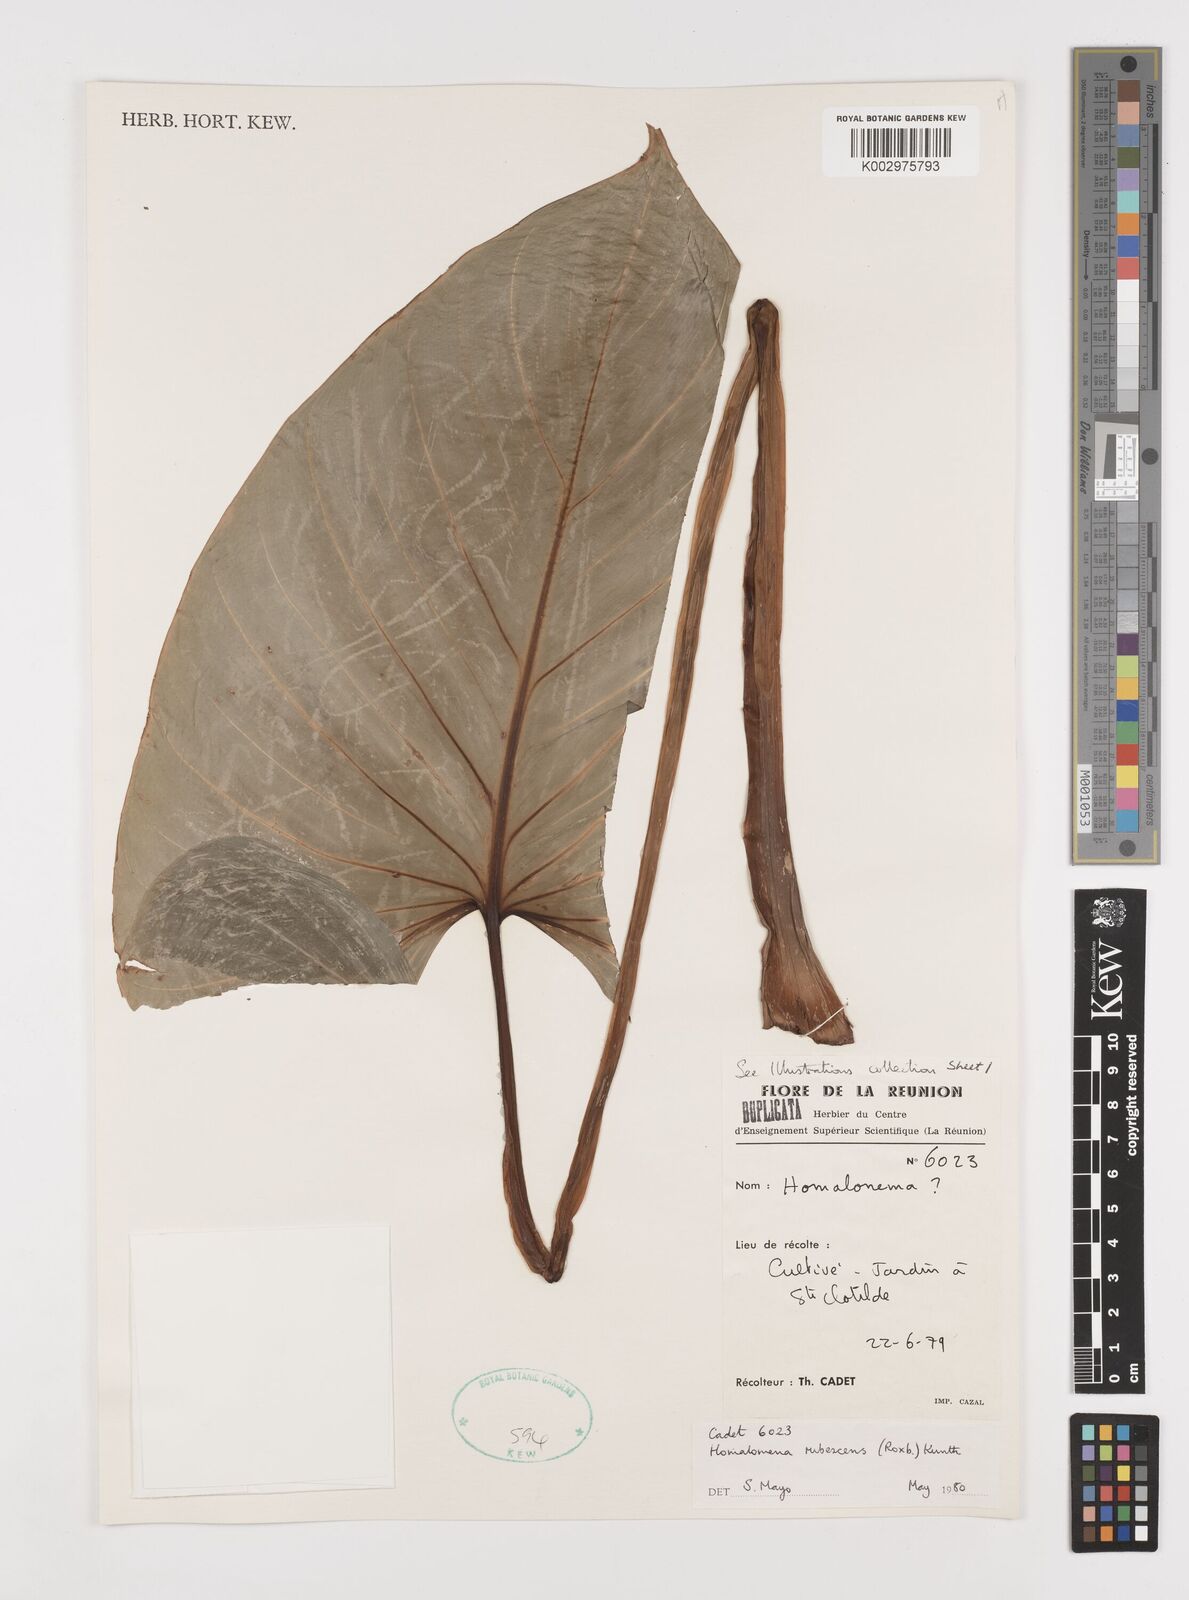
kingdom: Plantae
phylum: Tracheophyta
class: Liliopsida
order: Alismatales
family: Araceae
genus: Homalomena
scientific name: Homalomena rubescens
